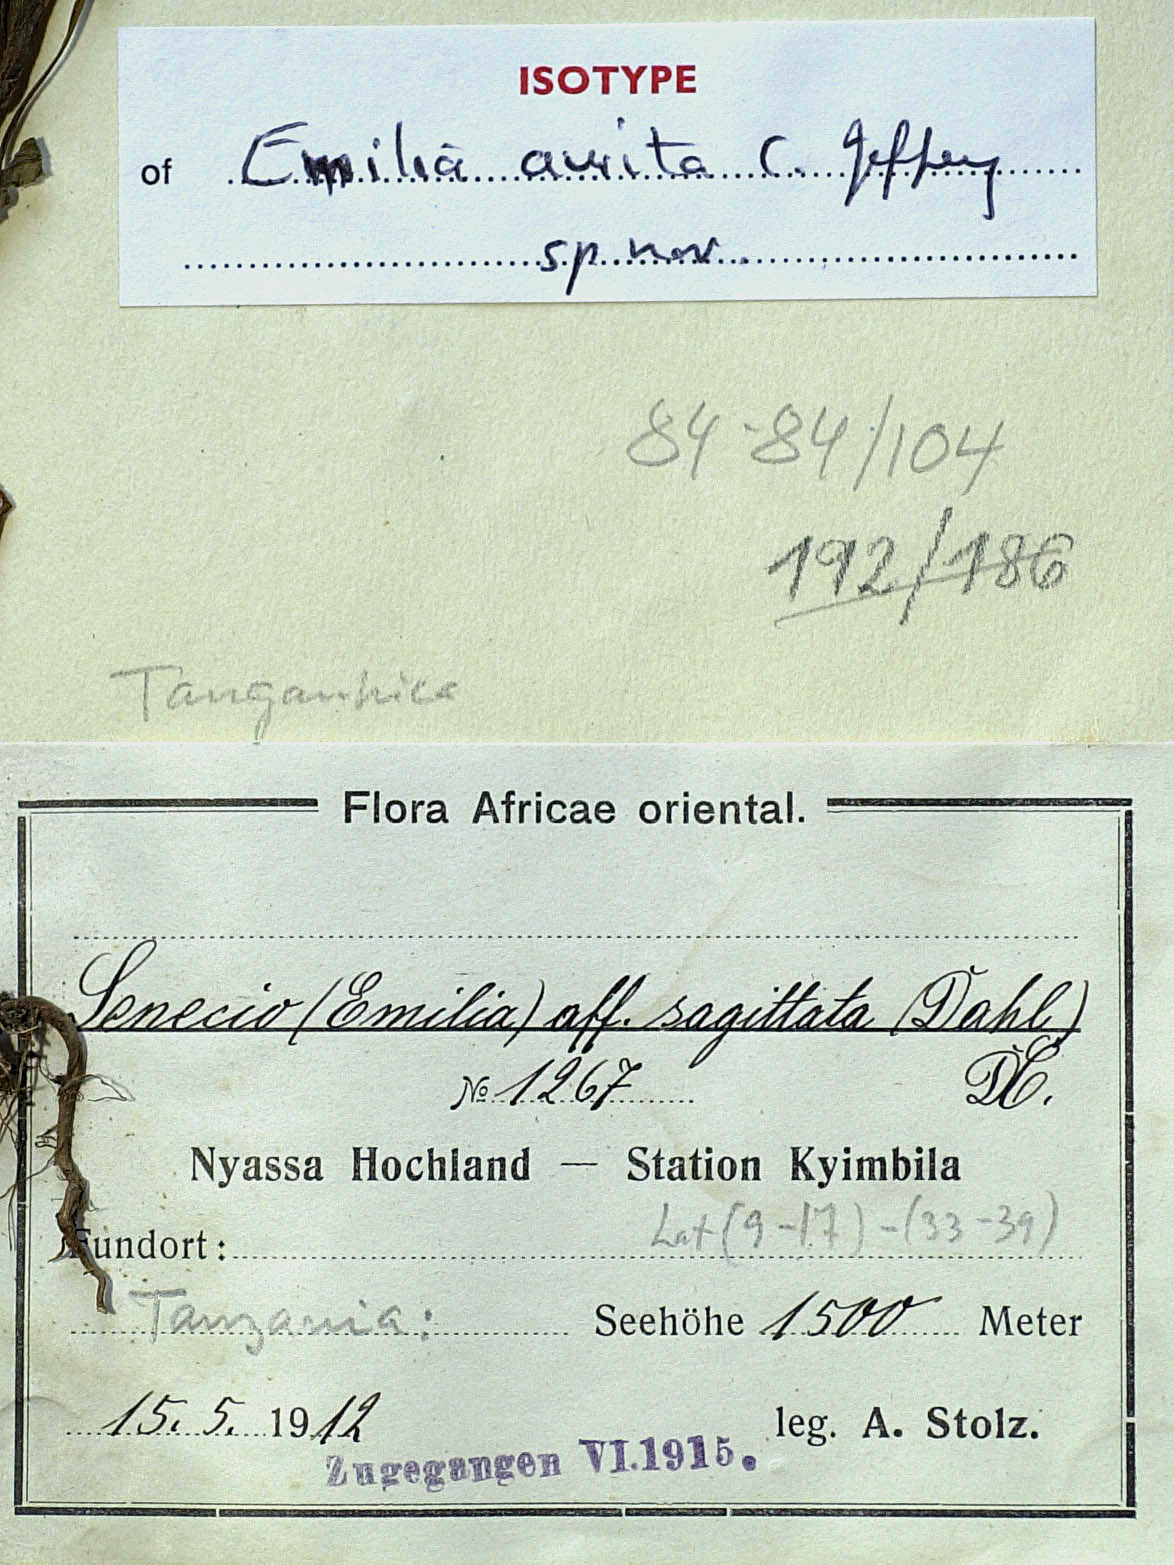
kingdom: Plantae
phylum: Tracheophyta
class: Magnoliopsida
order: Asterales
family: Asteraceae
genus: Emilia
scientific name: Emilia aurita
